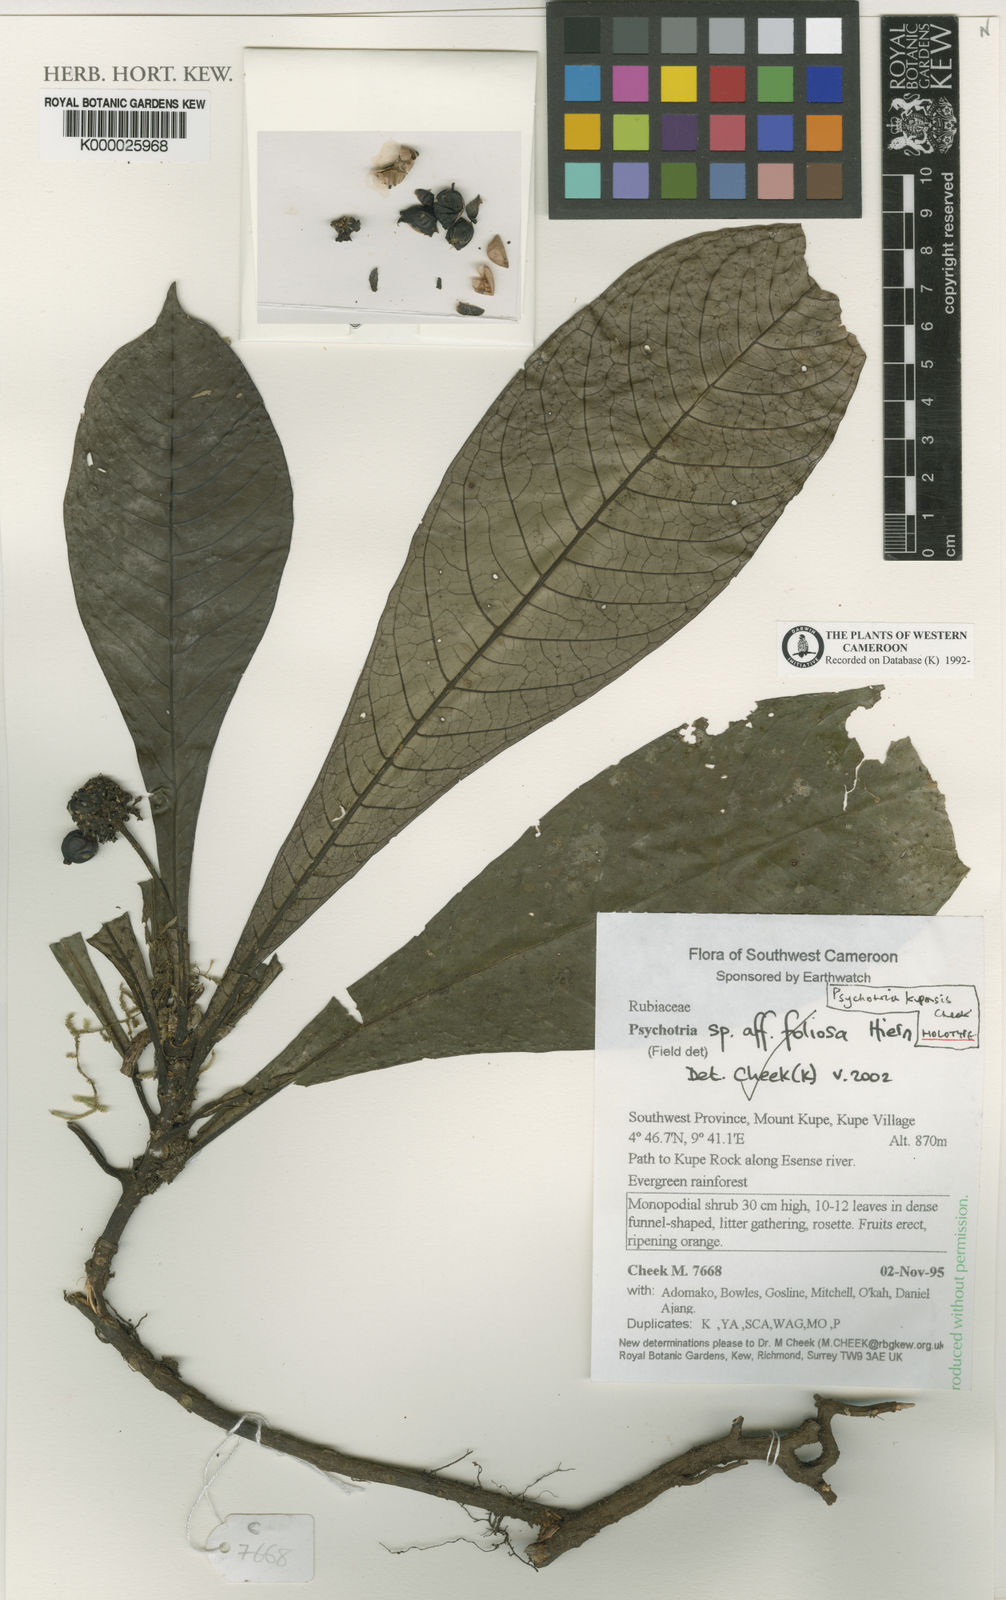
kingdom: Plantae
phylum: Tracheophyta
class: Magnoliopsida
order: Gentianales
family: Rubiaceae
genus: Psychotria
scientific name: Psychotria kupensis
